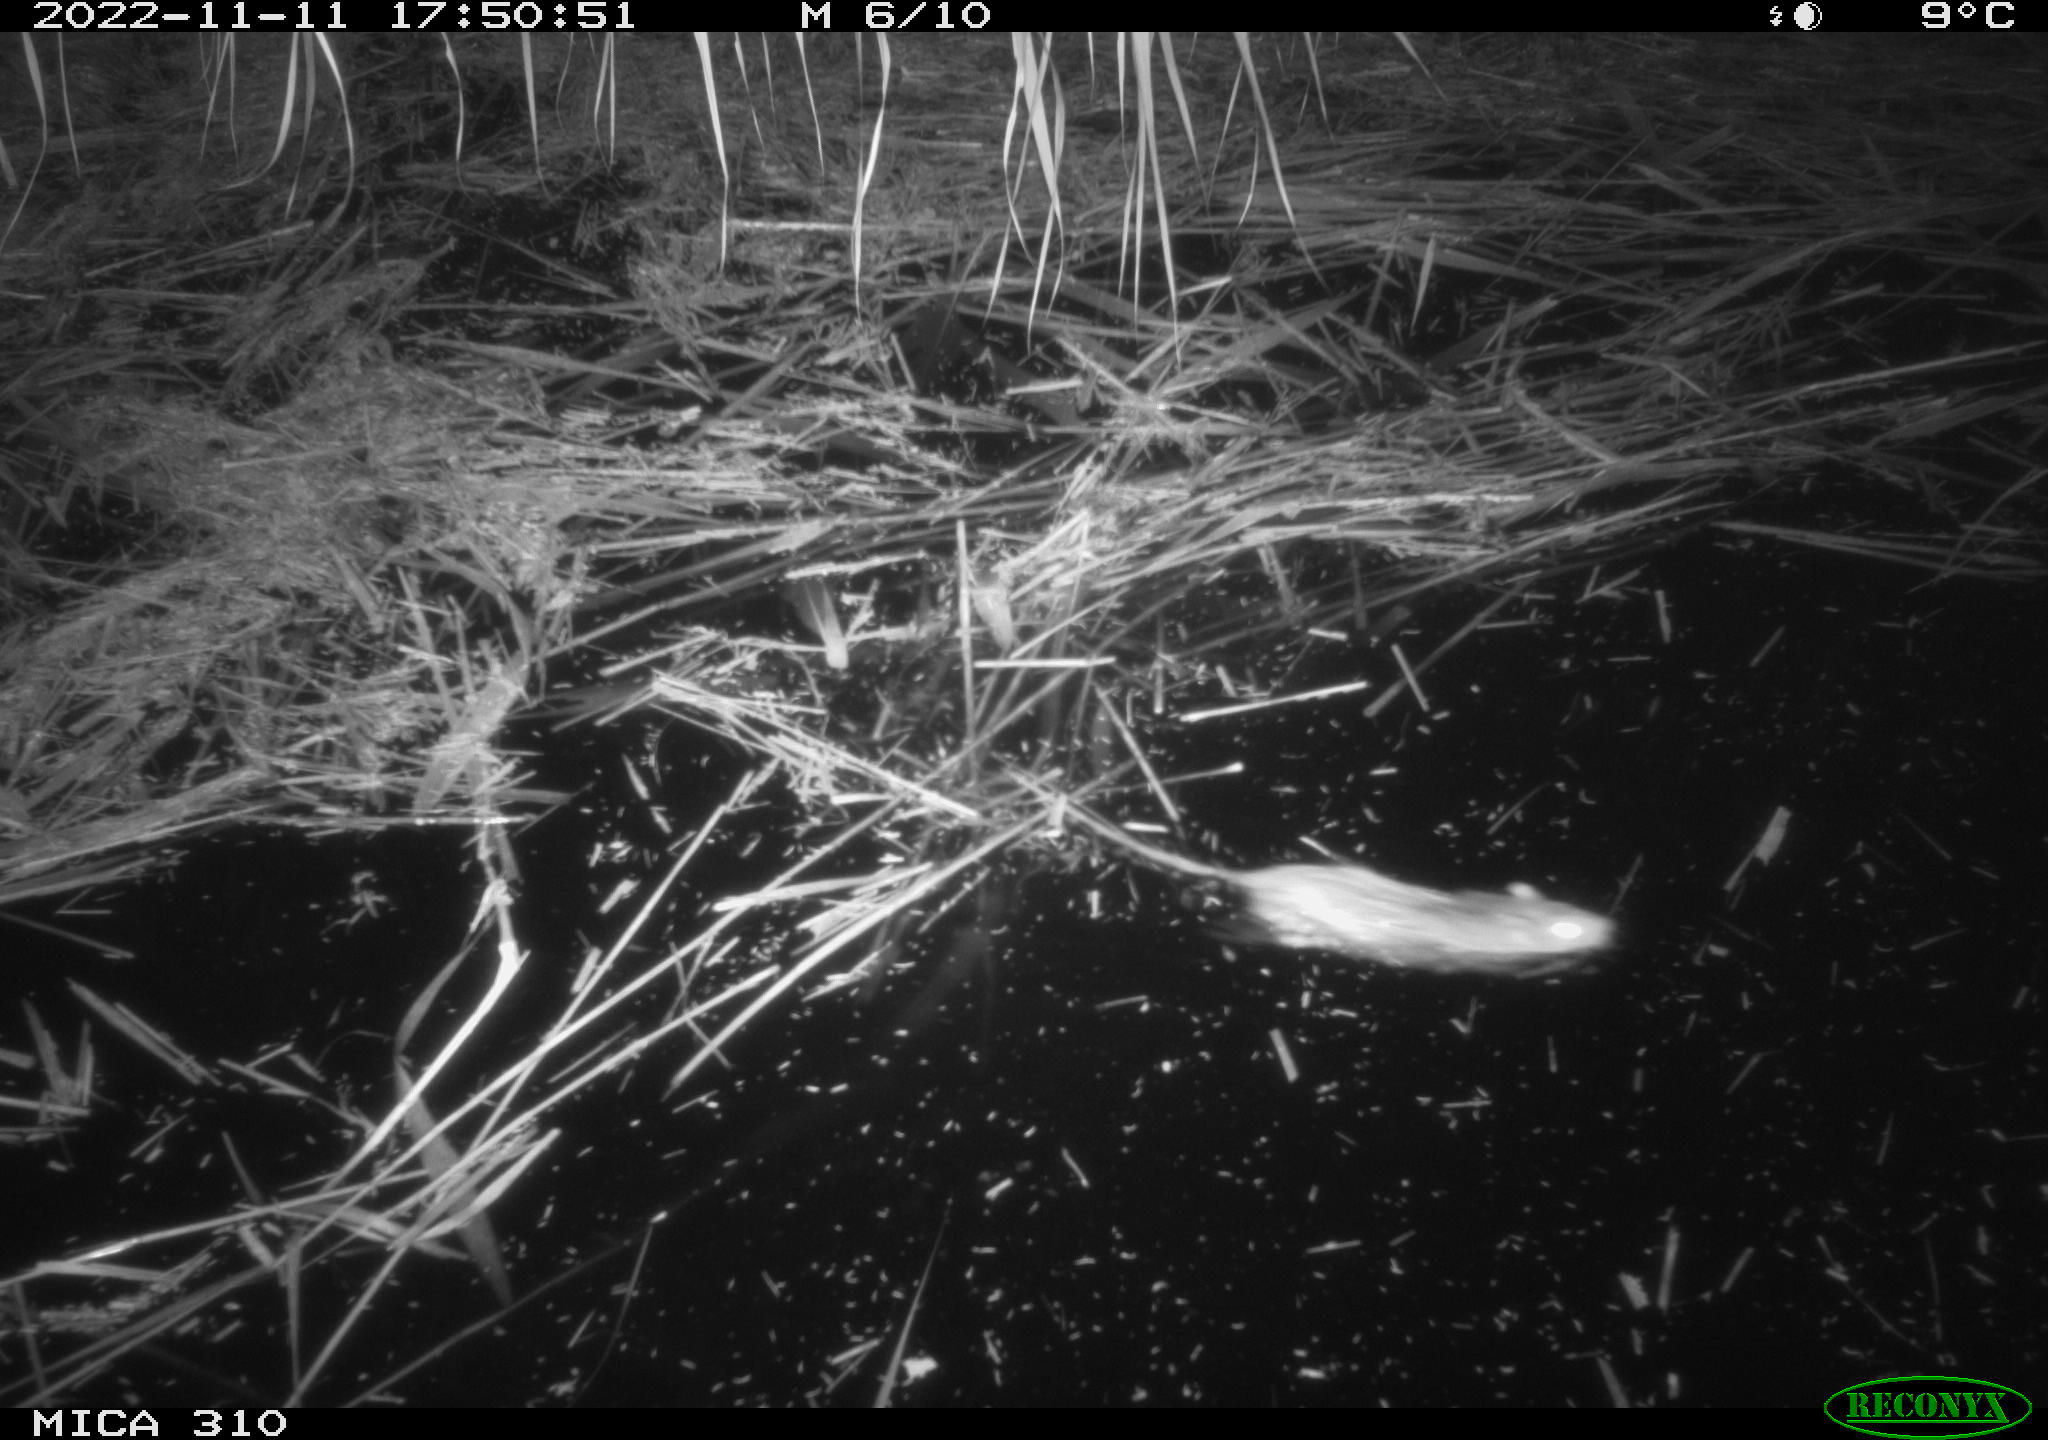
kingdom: Animalia
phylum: Chordata
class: Mammalia
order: Rodentia
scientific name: Rodentia
